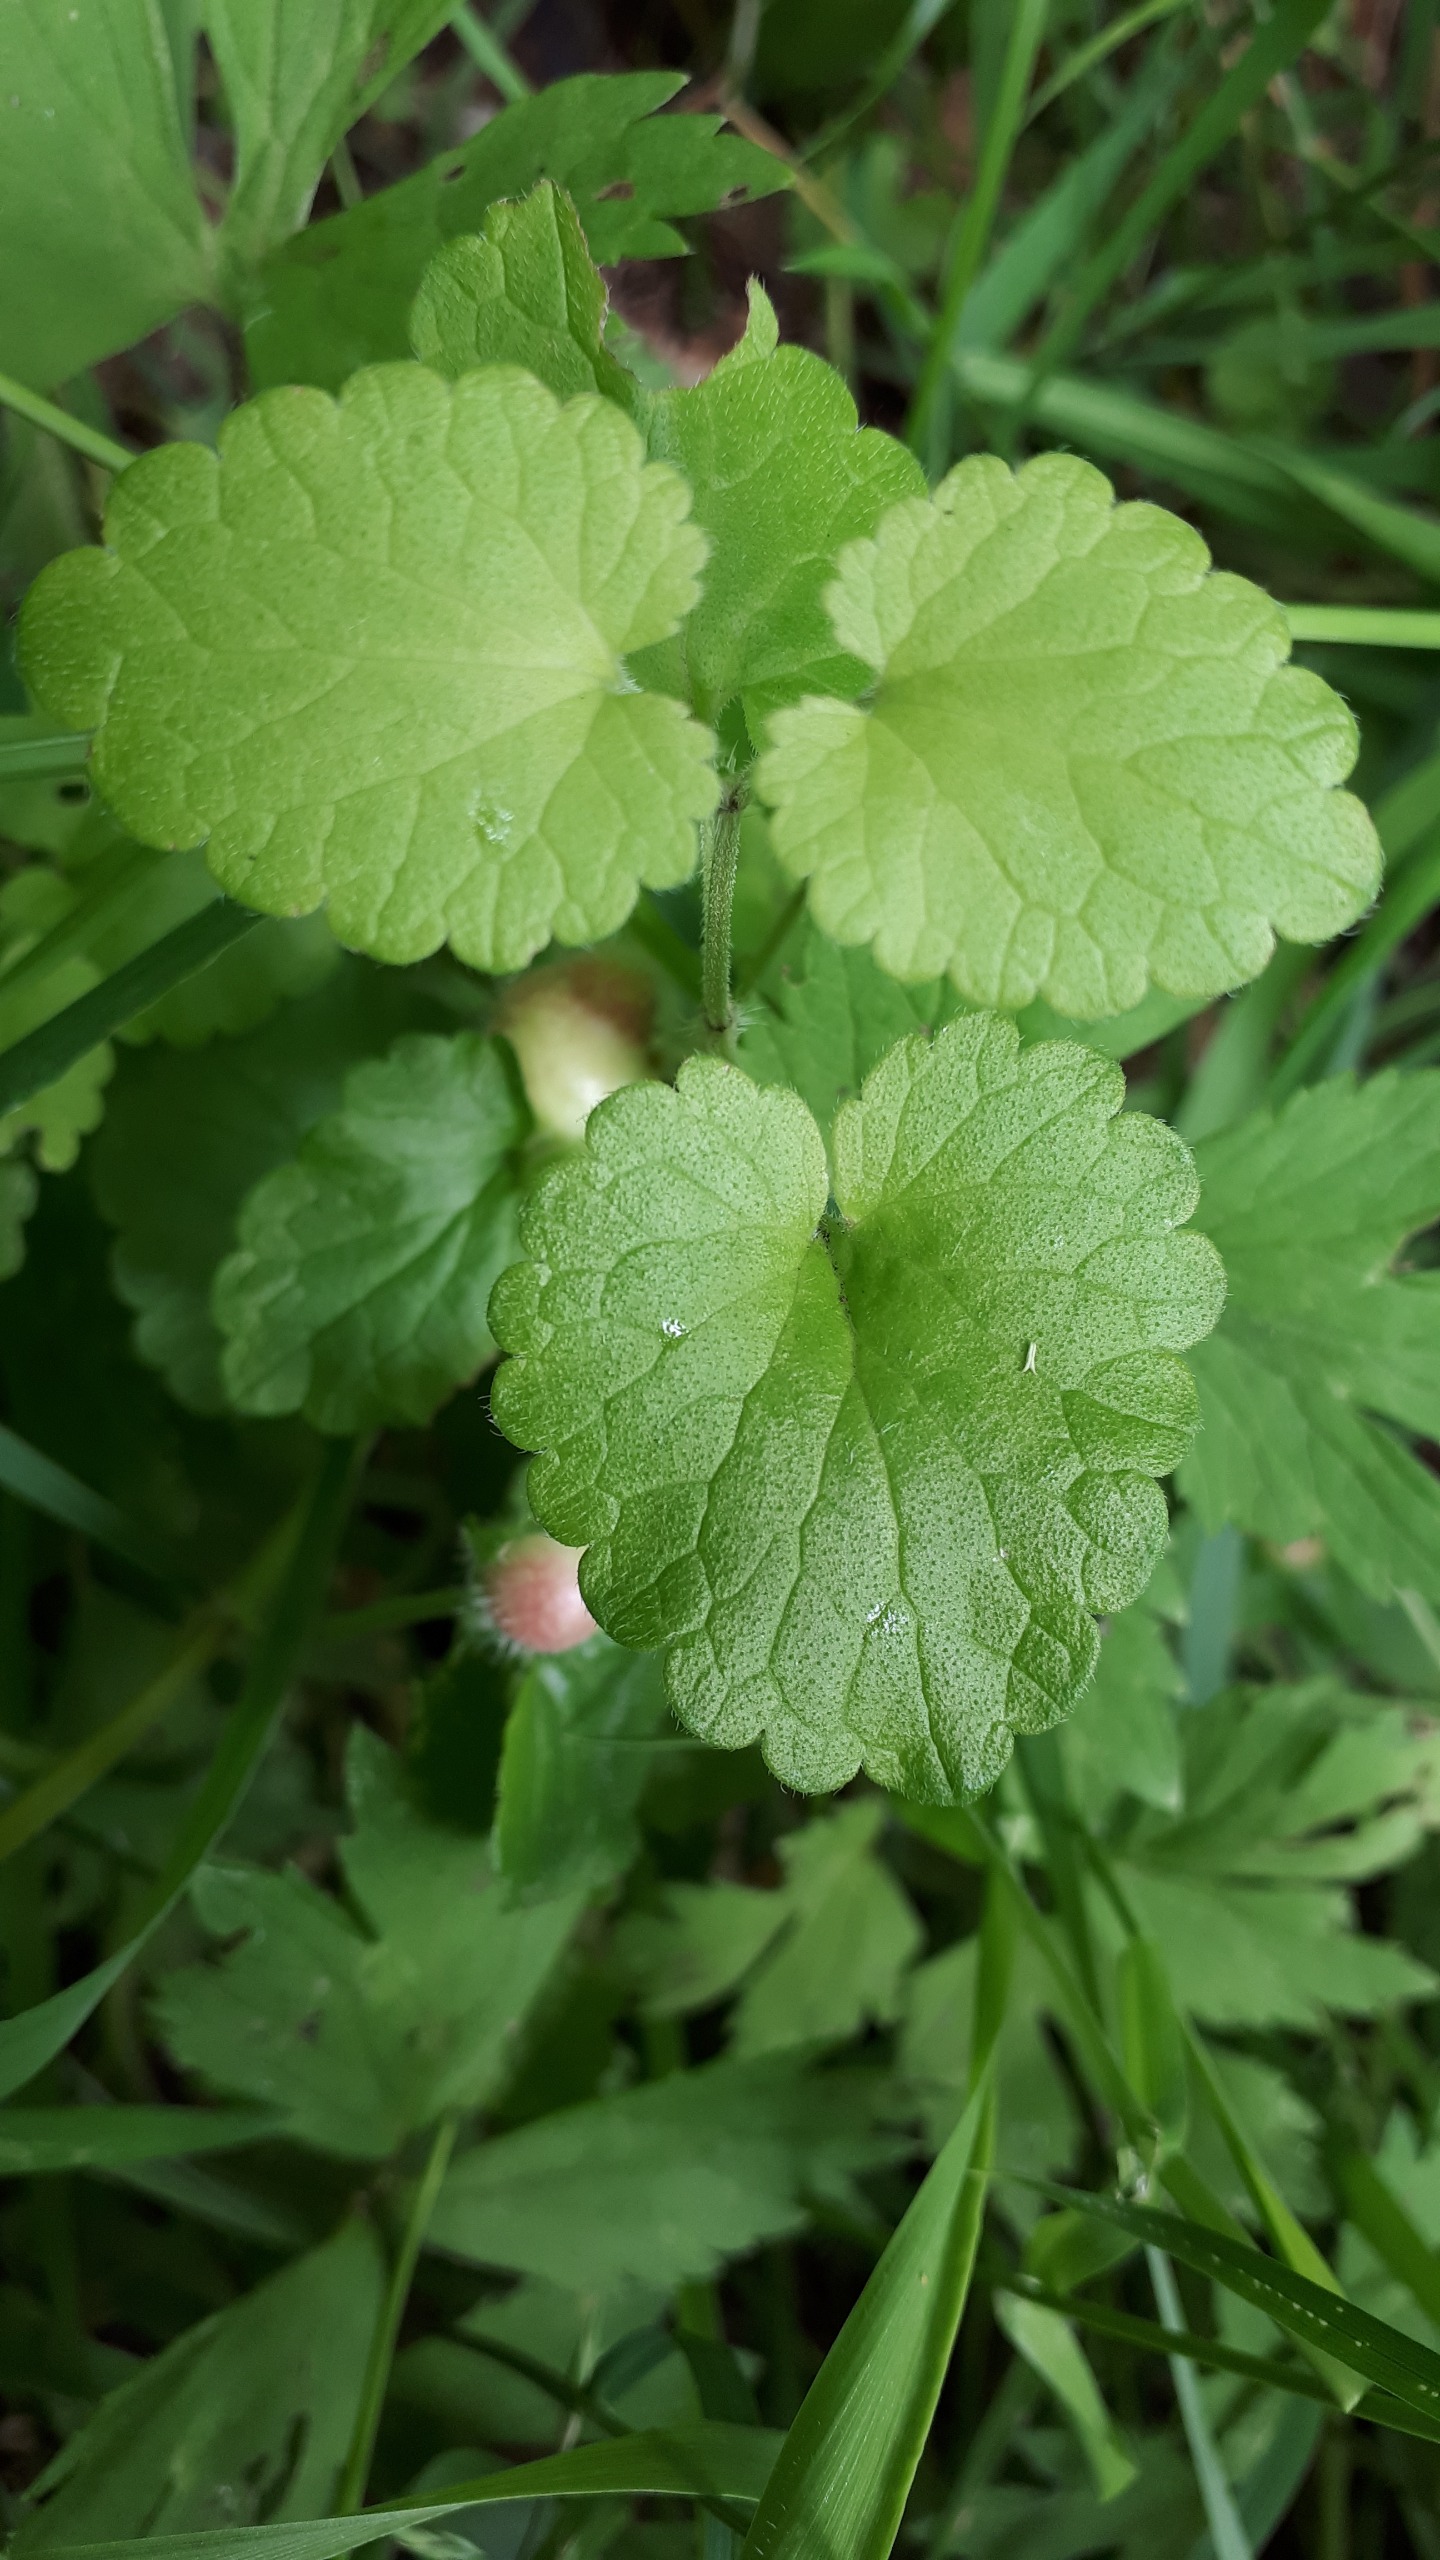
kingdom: Animalia
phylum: Arthropoda
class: Insecta
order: Hymenoptera
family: Cynipidae
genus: Liposthenes
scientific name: Liposthenes glechomae
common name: Korsknapgalhveps
